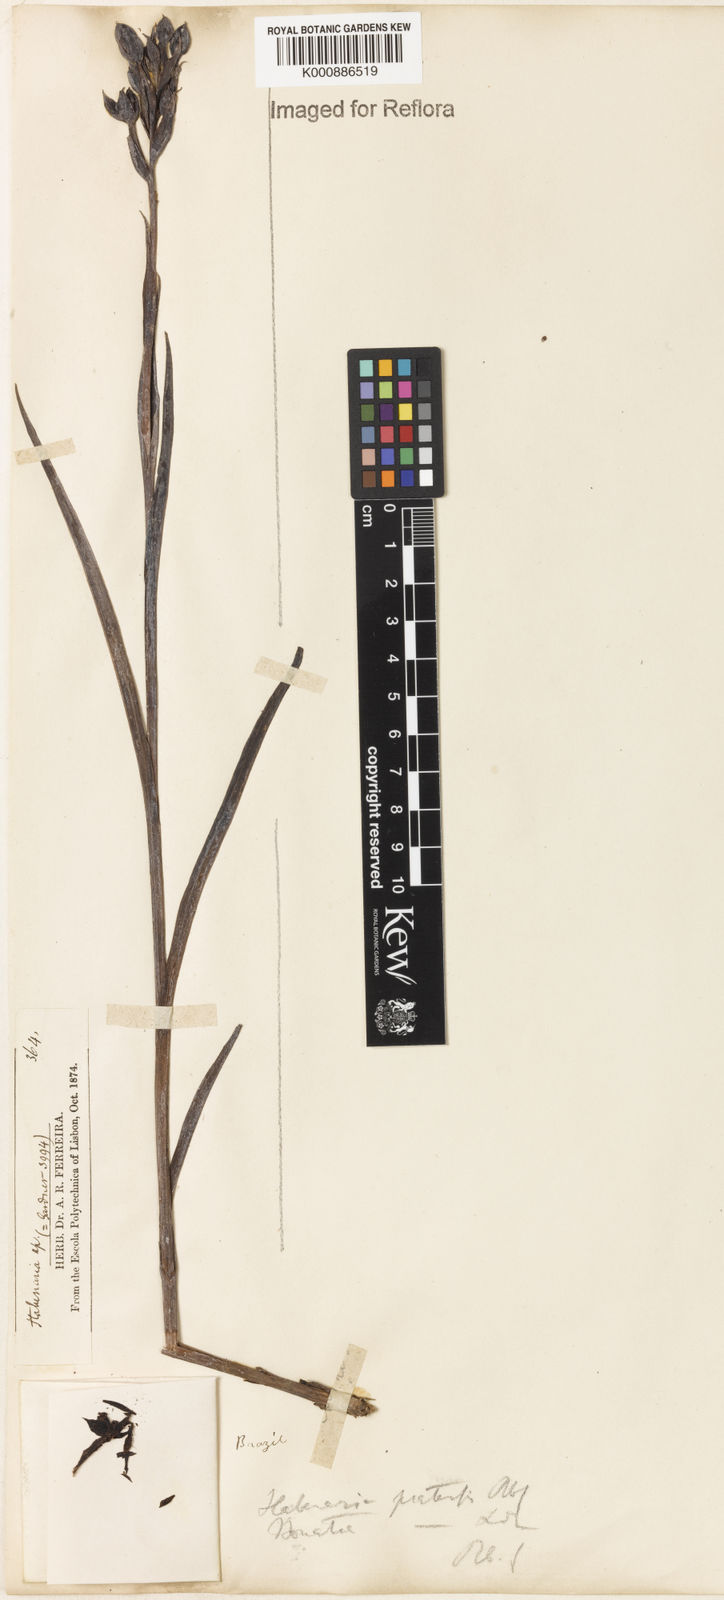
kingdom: Plantae
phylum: Tracheophyta
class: Liliopsida
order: Asparagales
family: Orchidaceae
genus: Habenaria
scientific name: Habenaria pratensis
